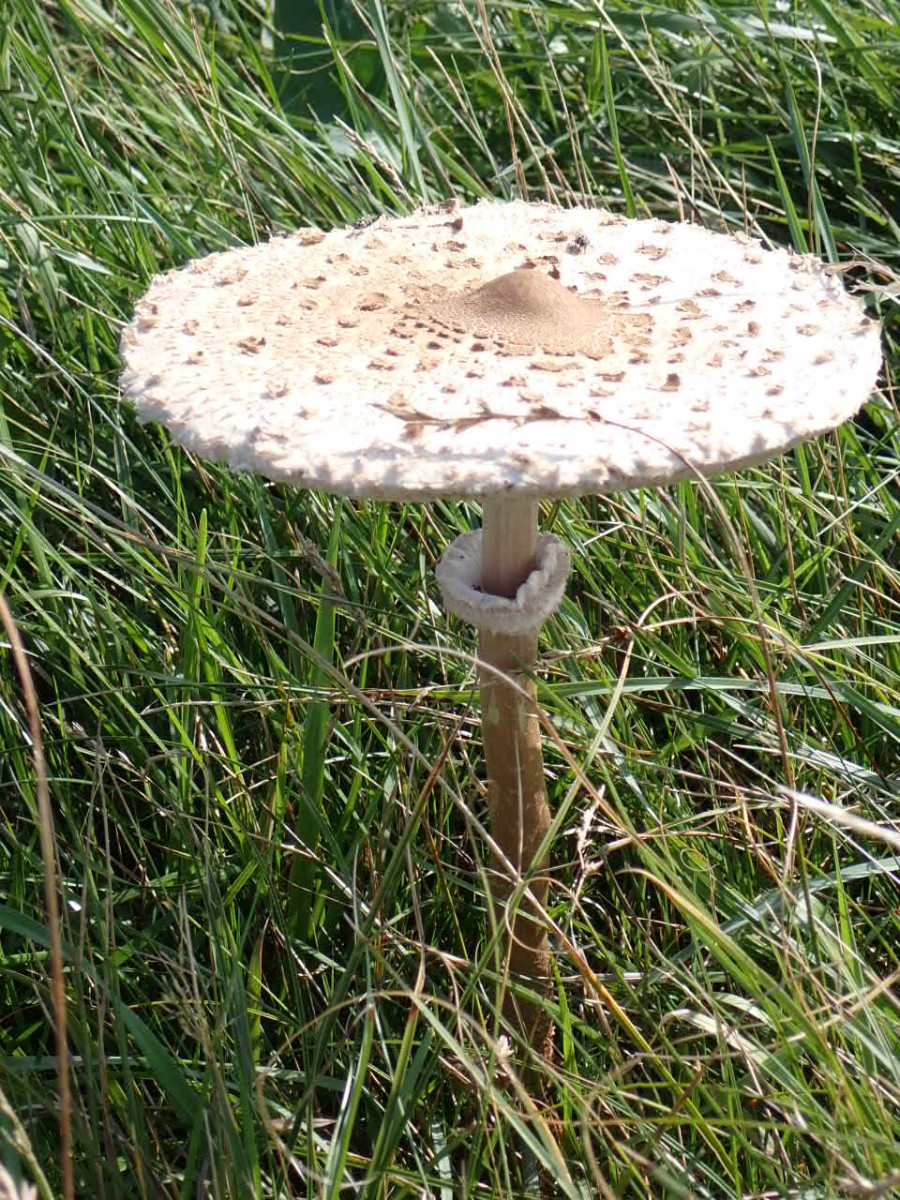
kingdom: Fungi
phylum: Basidiomycota
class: Agaricomycetes
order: Agaricales
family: Agaricaceae
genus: Macrolepiota
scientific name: Macrolepiota procera
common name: stor kæmpeparasolhat
